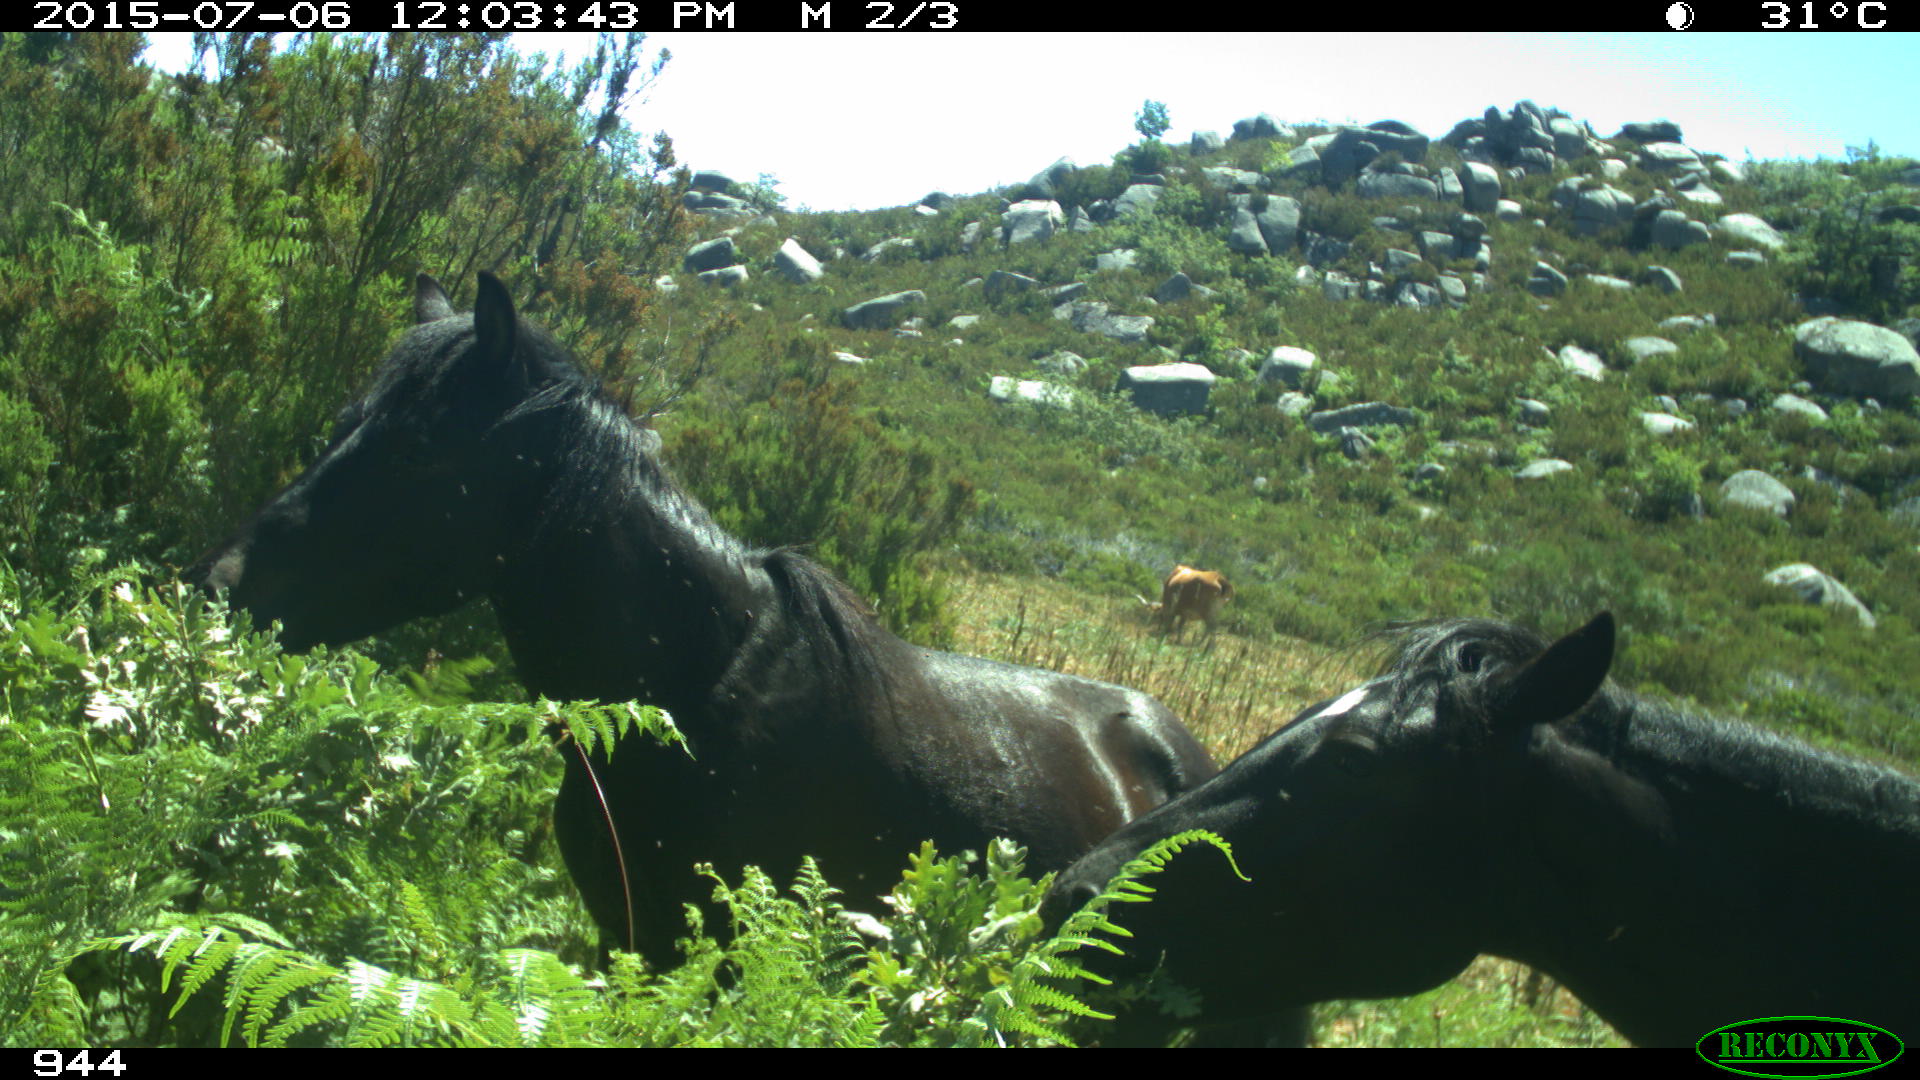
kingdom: Animalia
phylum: Chordata
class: Mammalia
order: Perissodactyla
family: Equidae
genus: Equus
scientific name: Equus caballus
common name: Horse
